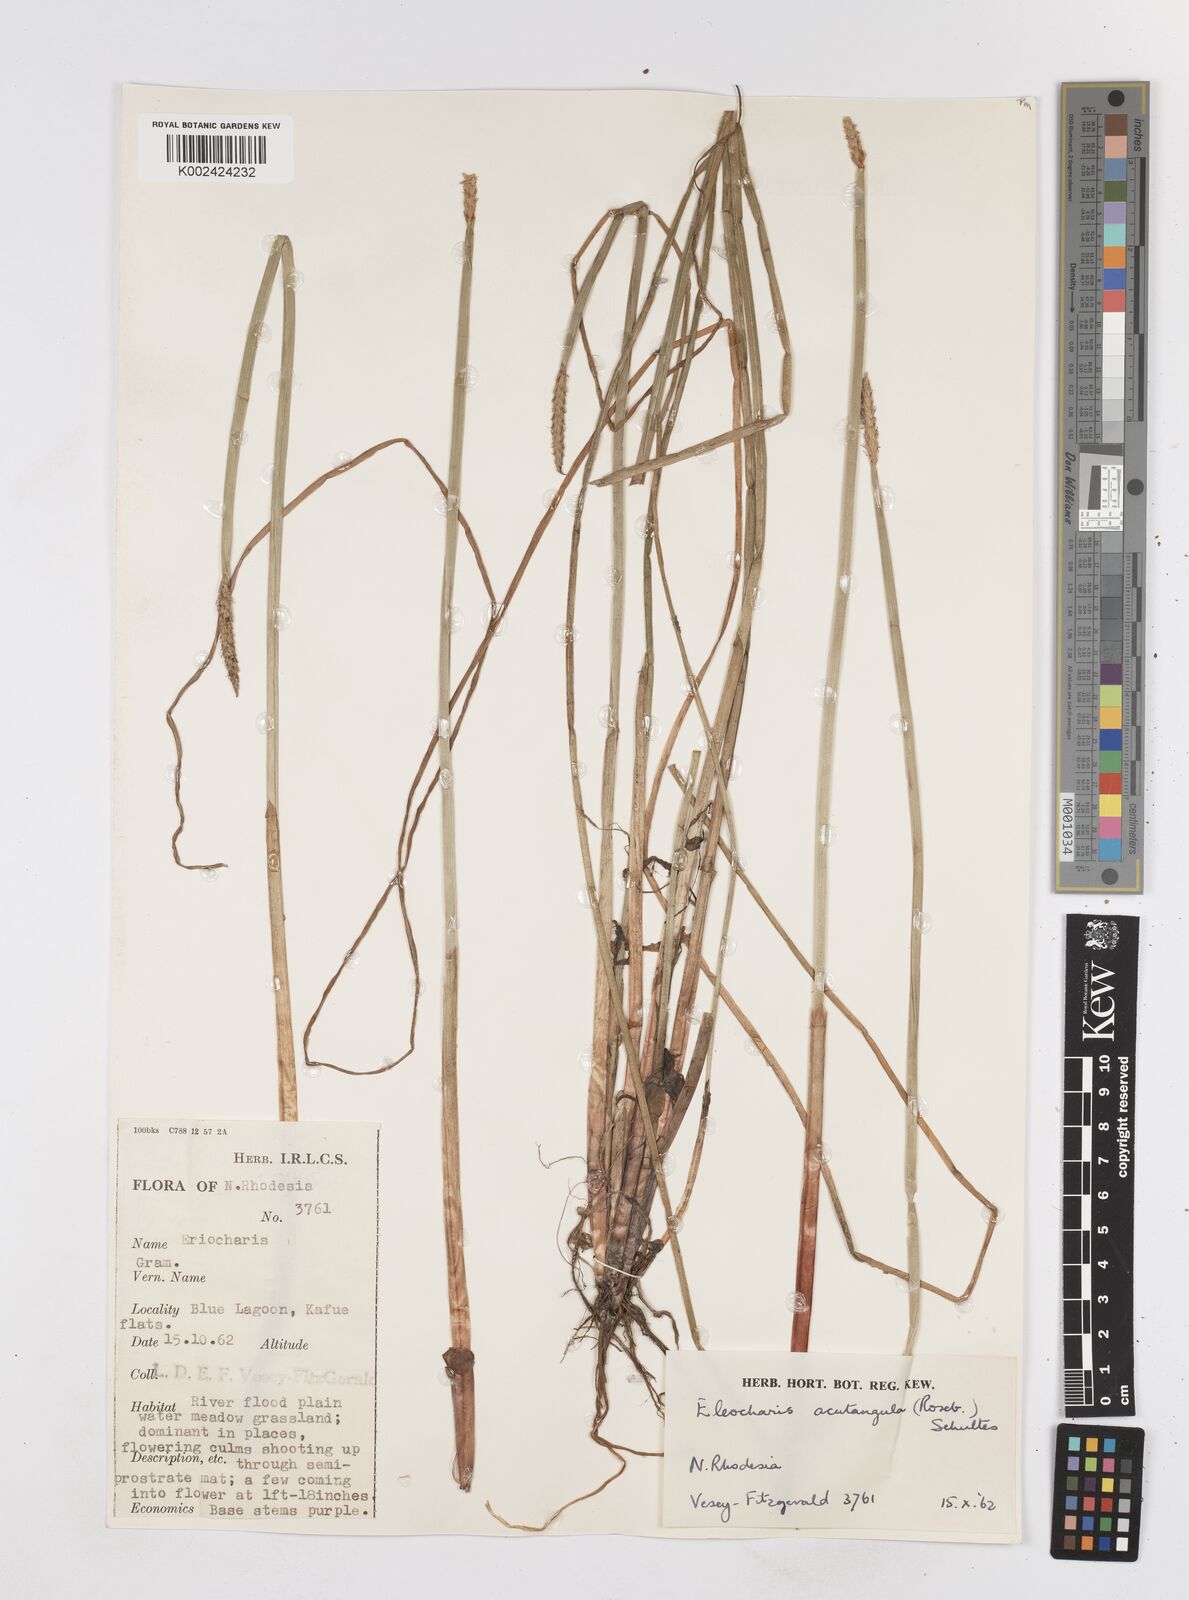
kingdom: Plantae
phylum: Tracheophyta
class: Liliopsida
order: Poales
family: Cyperaceae
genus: Eleocharis
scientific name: Eleocharis acutangula
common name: Acute spikerush
